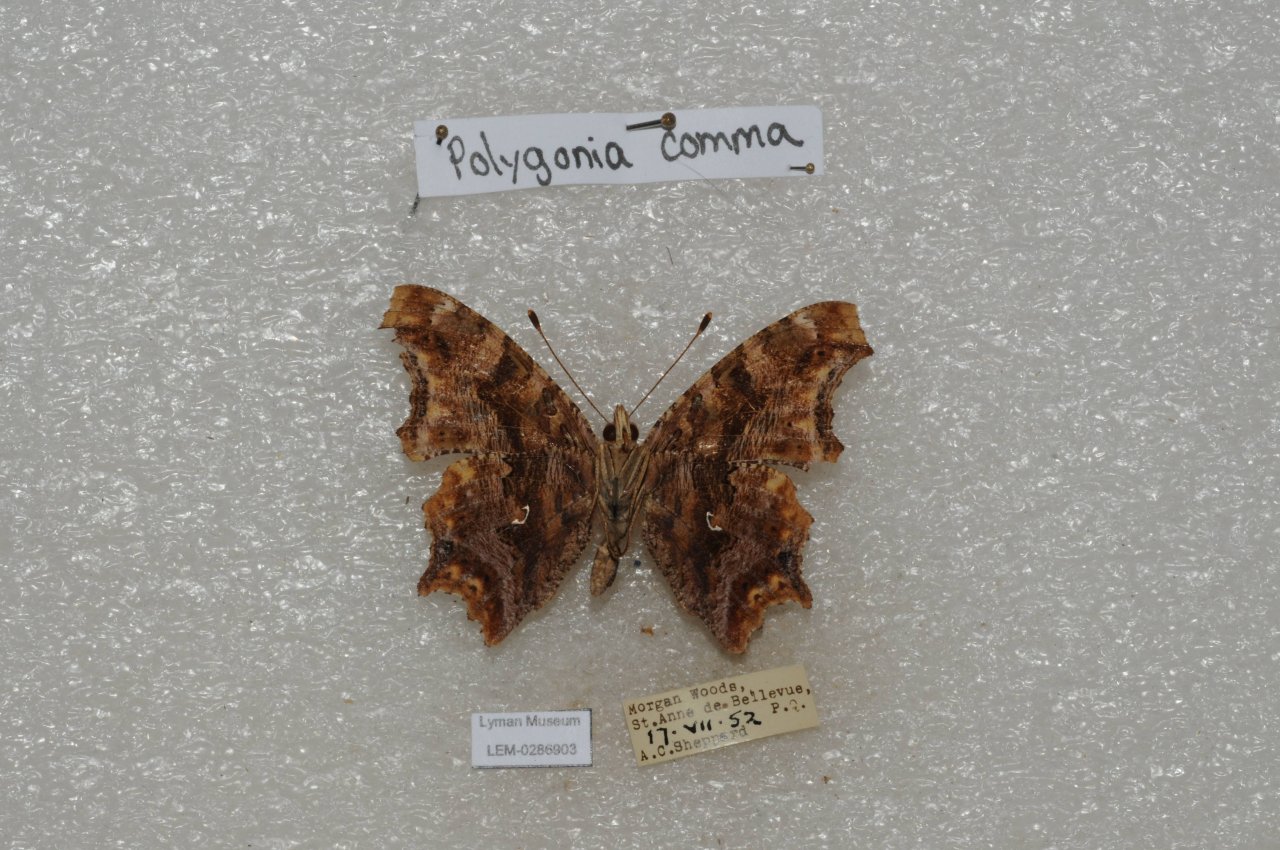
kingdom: Animalia
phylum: Arthropoda
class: Insecta
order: Lepidoptera
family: Nymphalidae
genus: Polygonia
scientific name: Polygonia comma
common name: Eastern Comma
